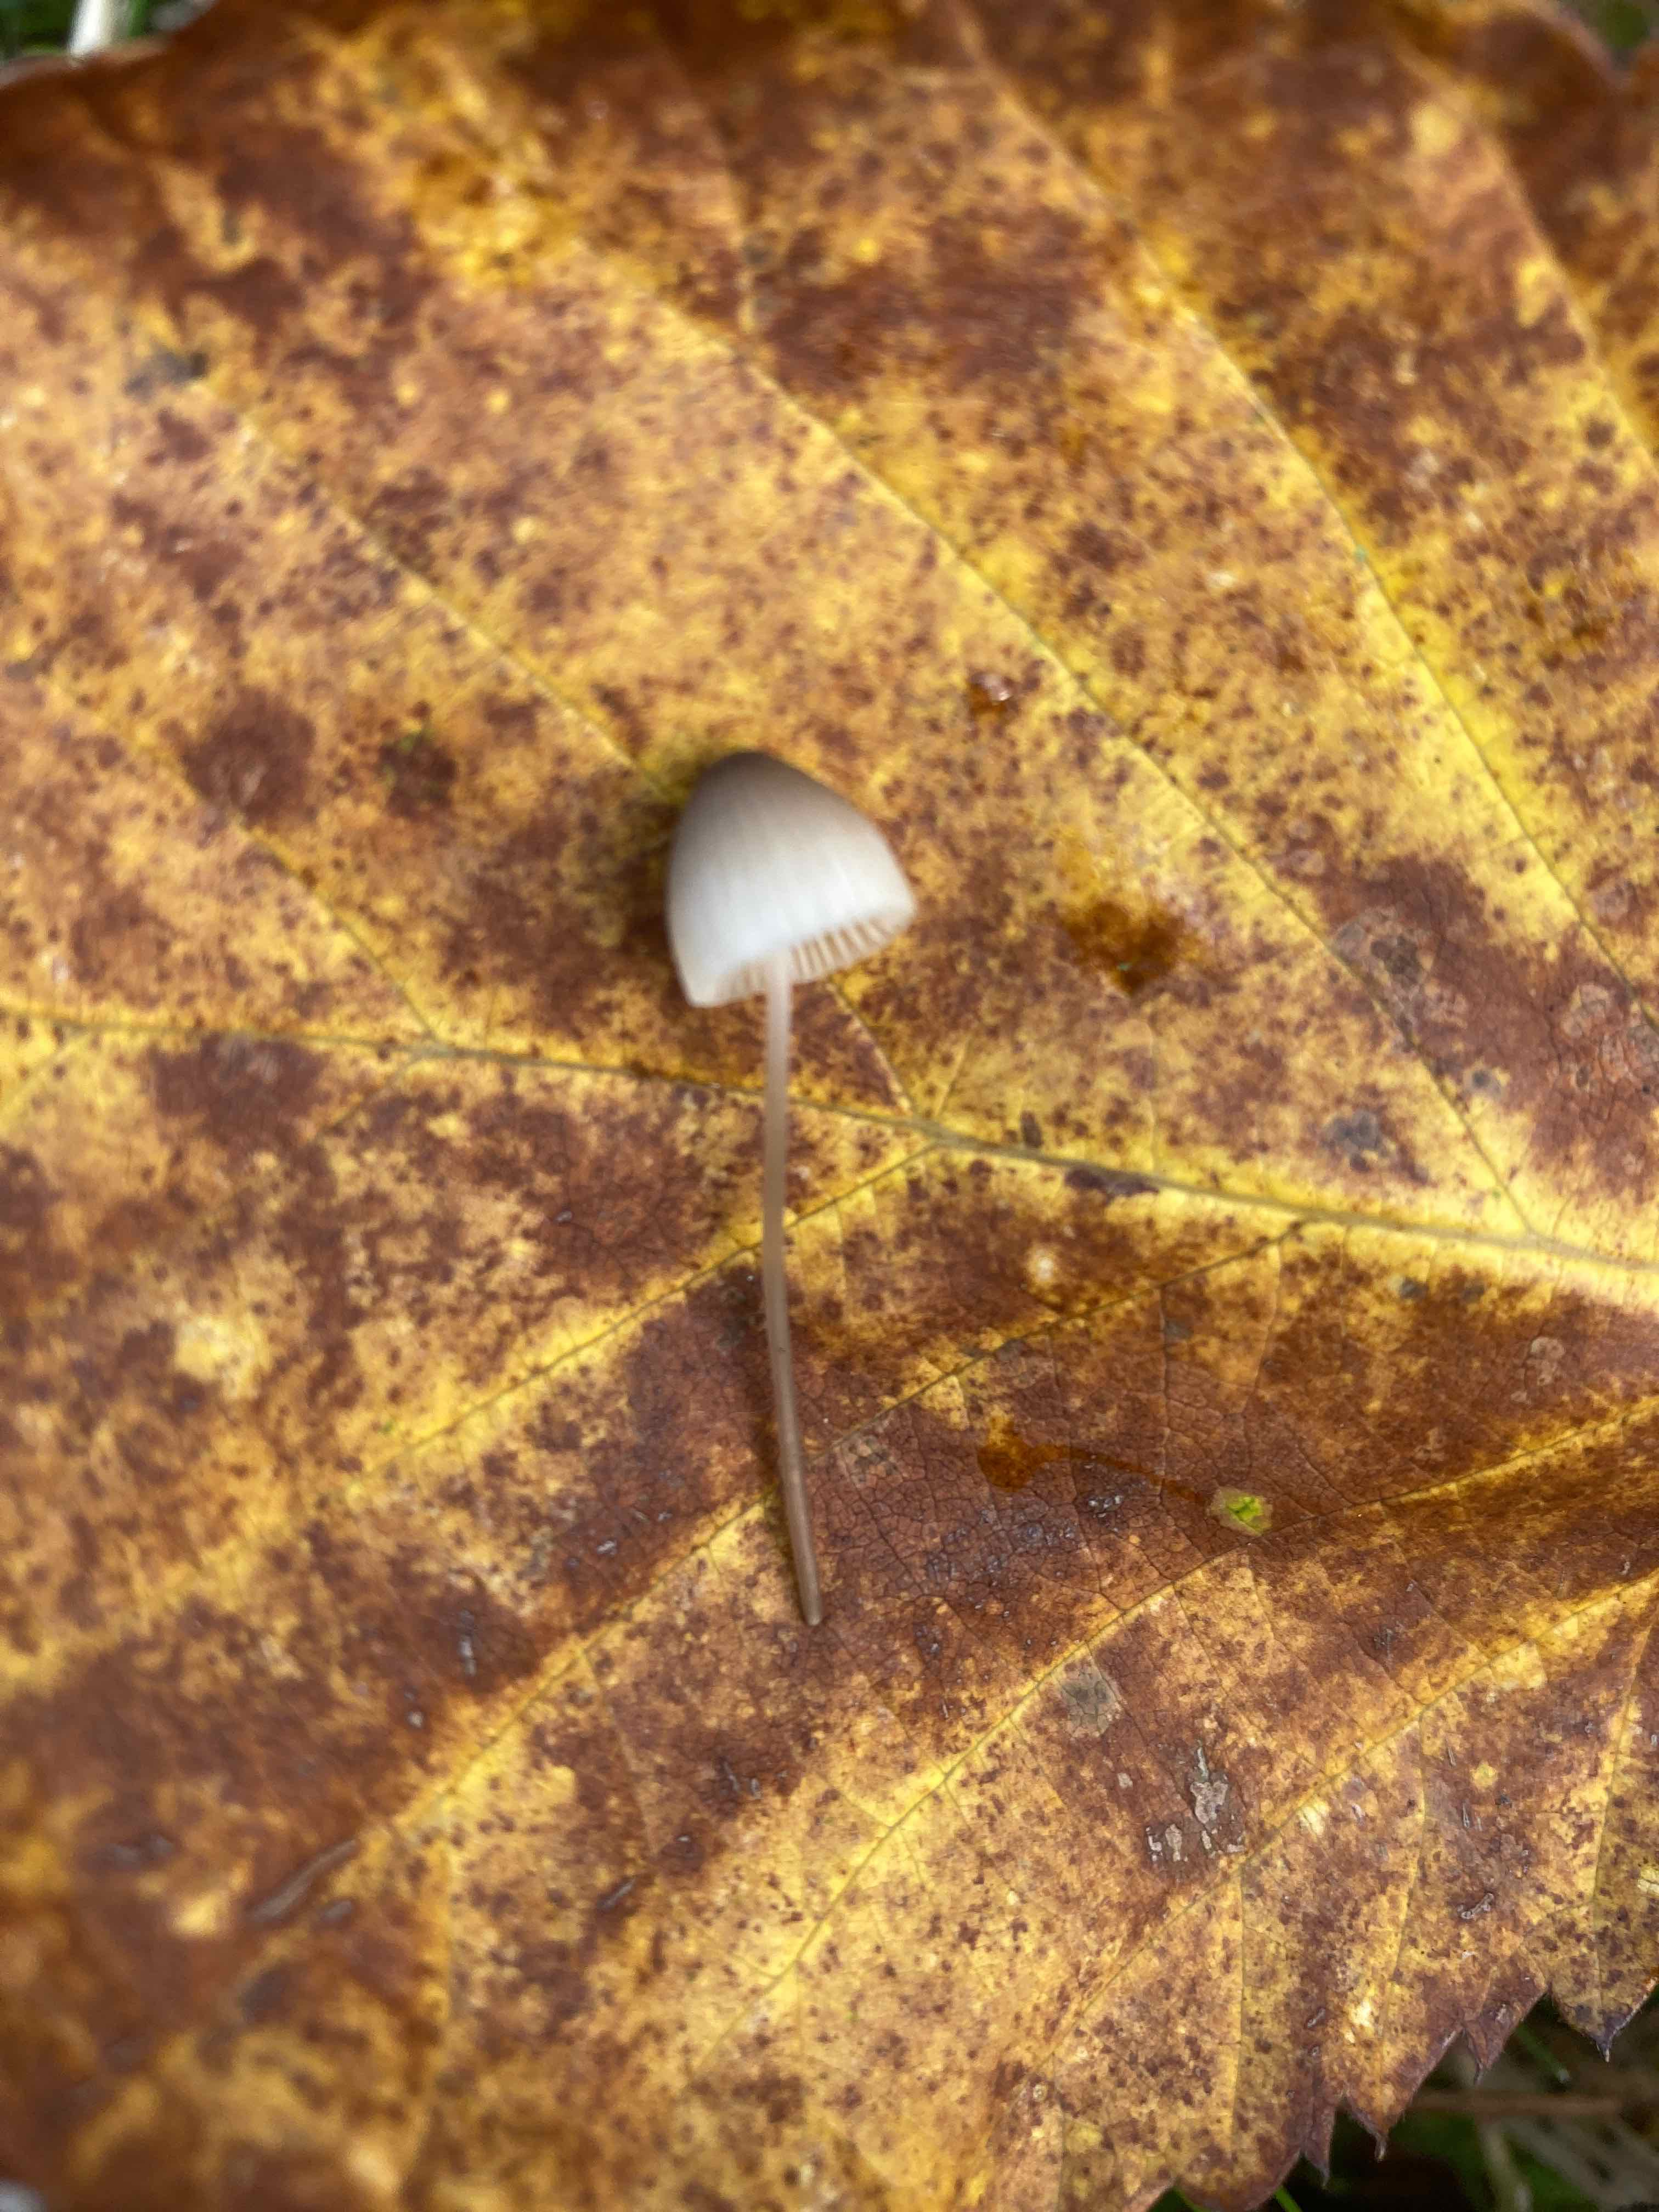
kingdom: Fungi
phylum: Basidiomycota
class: Agaricomycetes
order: Agaricales
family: Mycenaceae
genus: Mycena
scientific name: Mycena
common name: huesvamp
